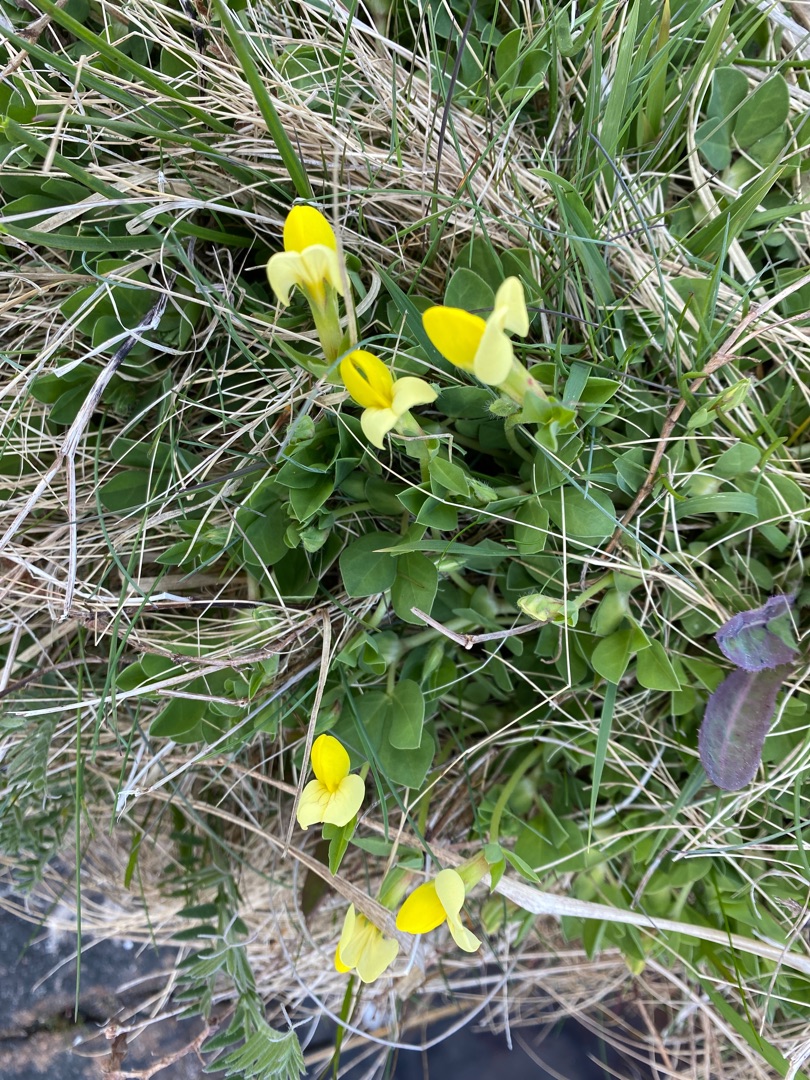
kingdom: Plantae
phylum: Tracheophyta
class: Magnoliopsida
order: Fabales
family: Fabaceae
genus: Lotus
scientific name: Lotus maritimus
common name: Kantbælg
